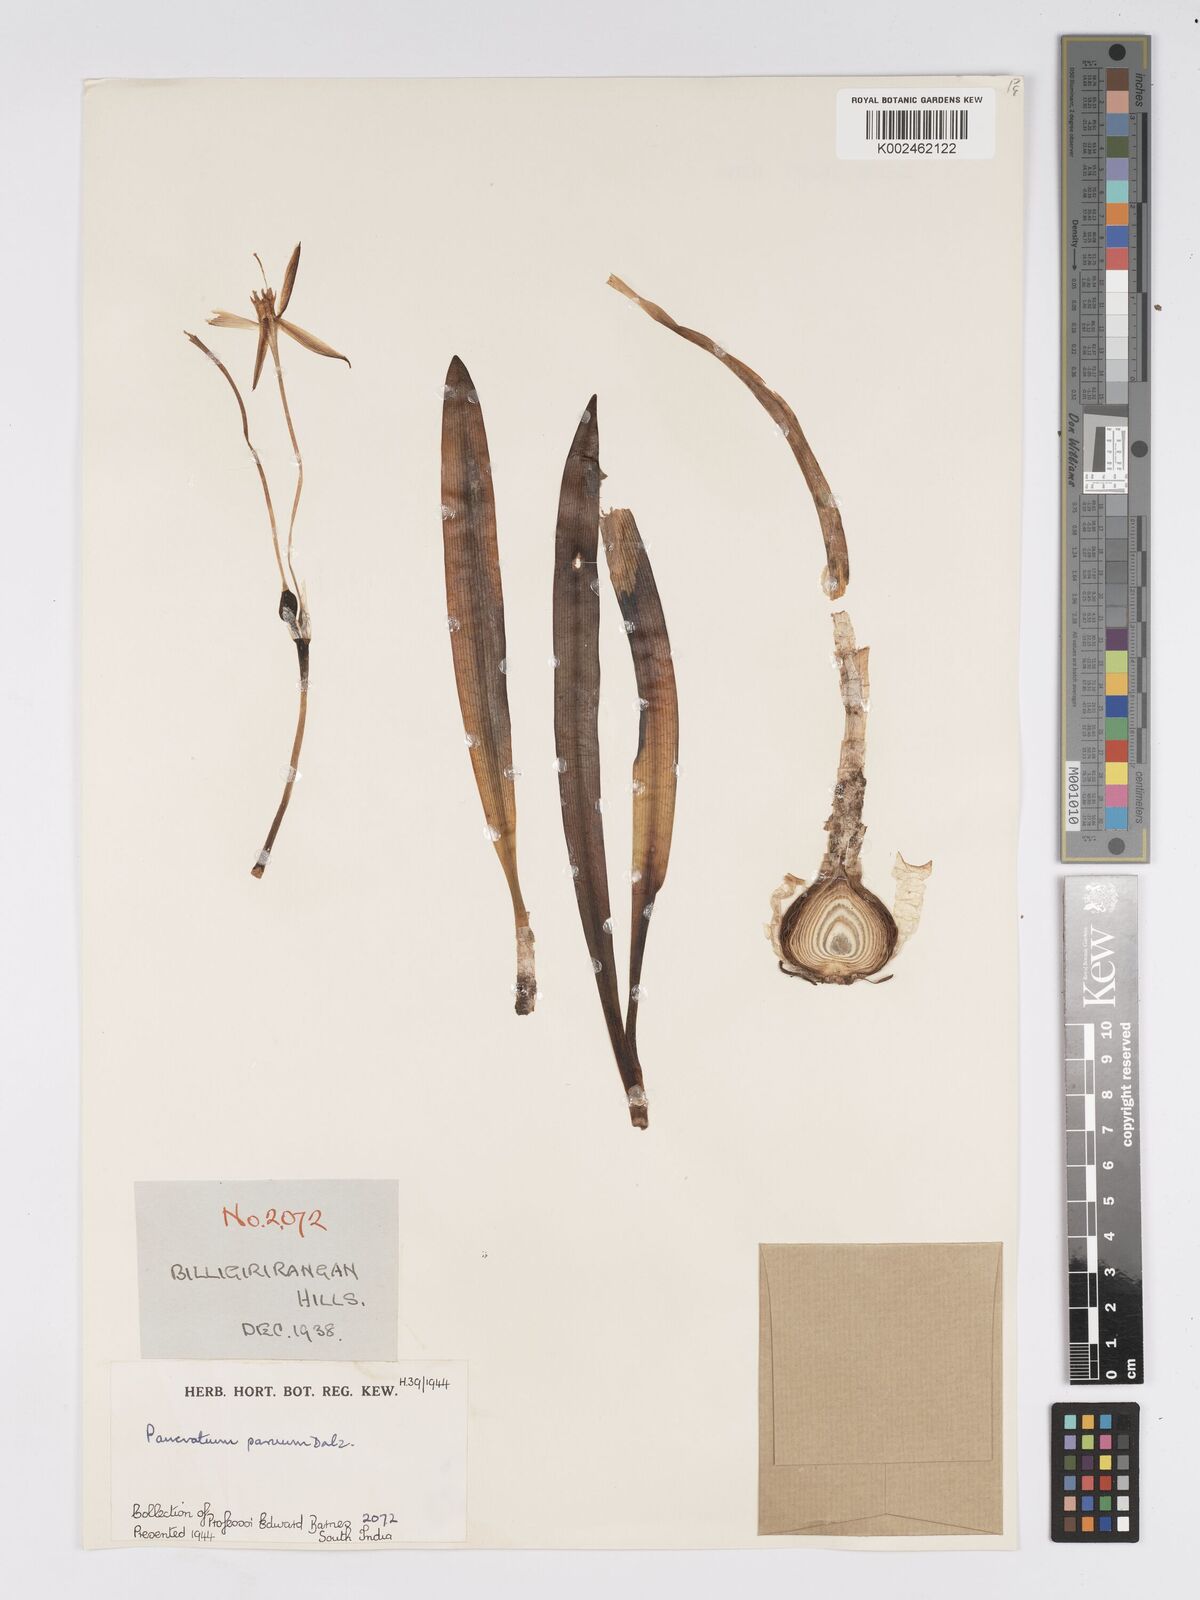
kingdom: Plantae
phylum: Tracheophyta
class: Liliopsida
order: Asparagales
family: Amaryllidaceae
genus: Pancratium
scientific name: Pancratium parvum
